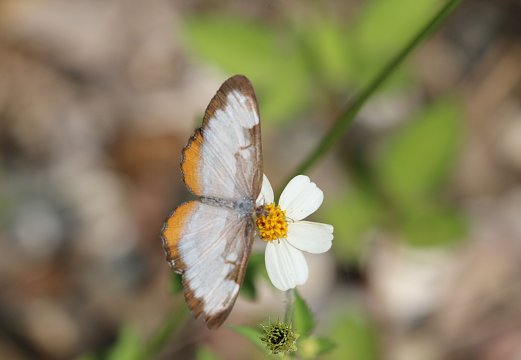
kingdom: Animalia
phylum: Arthropoda
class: Insecta
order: Lepidoptera
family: Nymphalidae
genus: Mestra
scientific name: Mestra amymone
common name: Common Mestra
